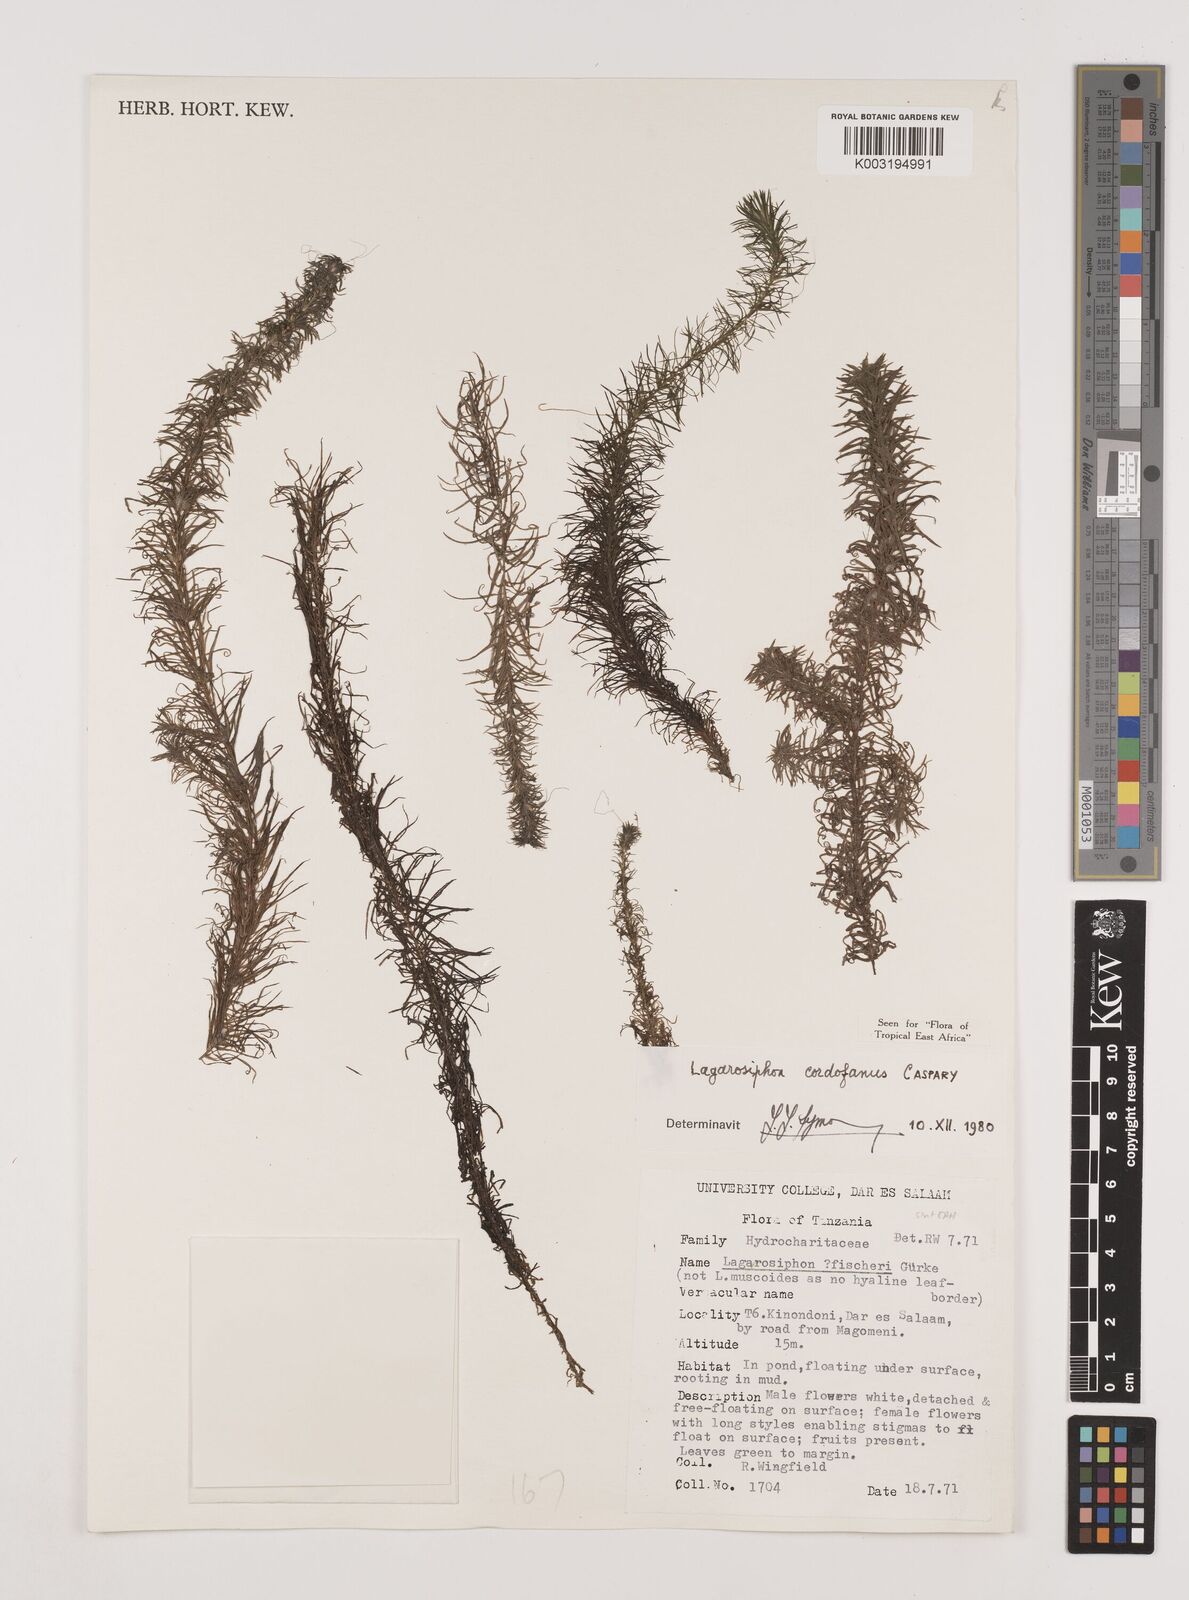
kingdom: Plantae
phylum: Tracheophyta
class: Liliopsida
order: Alismatales
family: Hydrocharitaceae
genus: Lagarosiphon
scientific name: Lagarosiphon cordofanus
